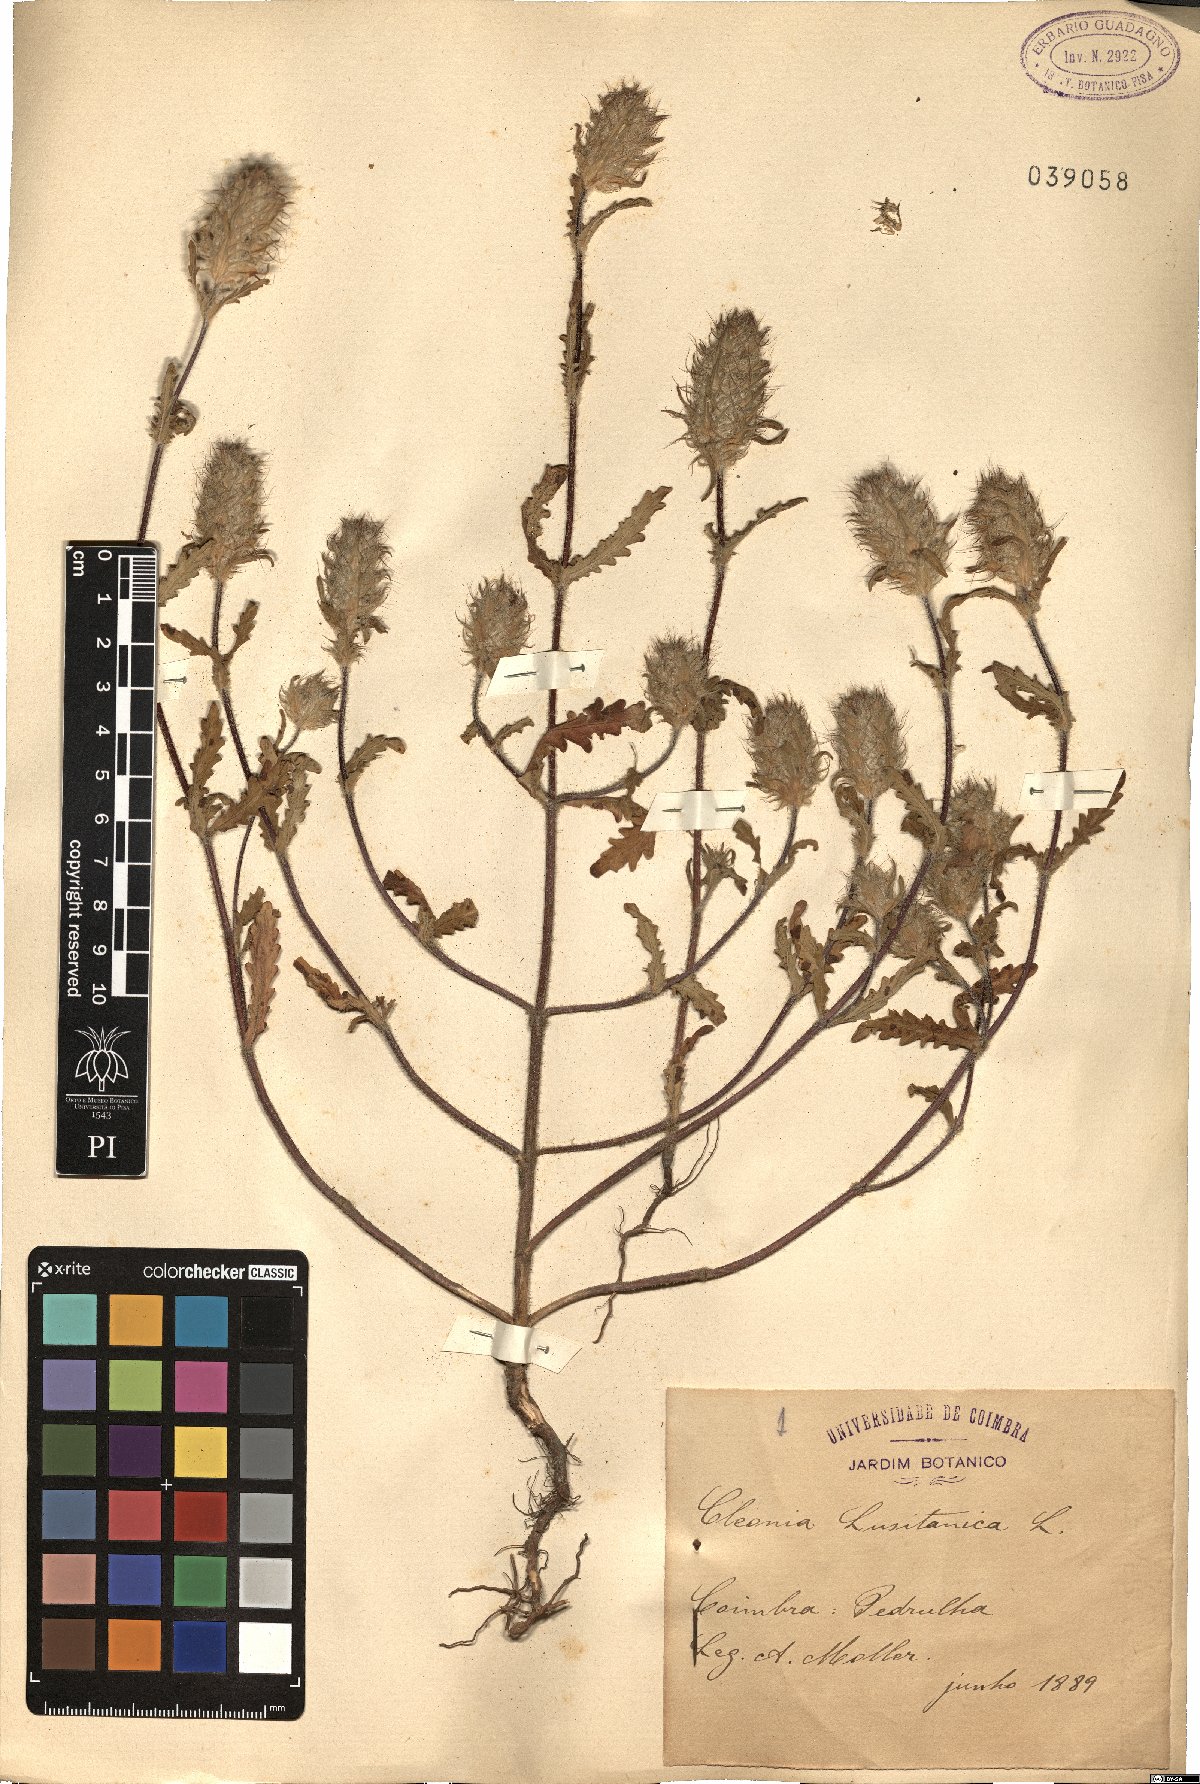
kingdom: Plantae
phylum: Tracheophyta
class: Magnoliopsida
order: Lamiales
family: Lamiaceae
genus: Cleonia
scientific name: Cleonia lusitanica
